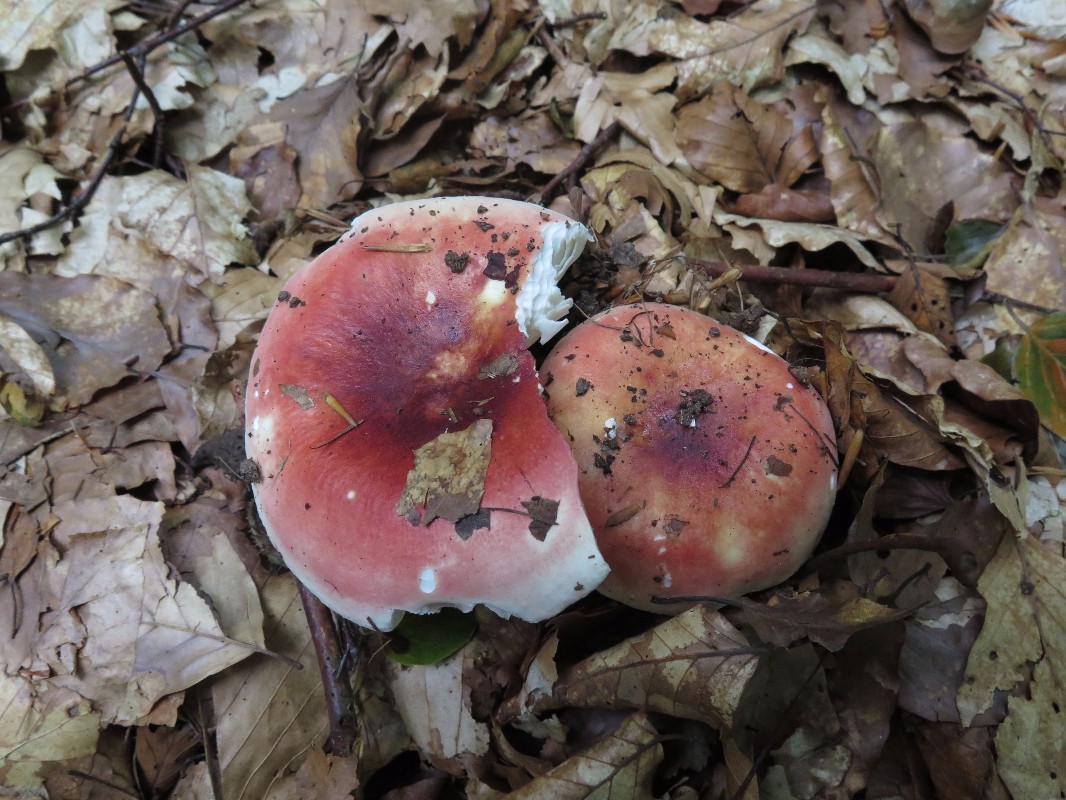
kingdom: Fungi
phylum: Basidiomycota
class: Agaricomycetes
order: Russulales
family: Russulaceae
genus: Russula
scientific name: Russula
